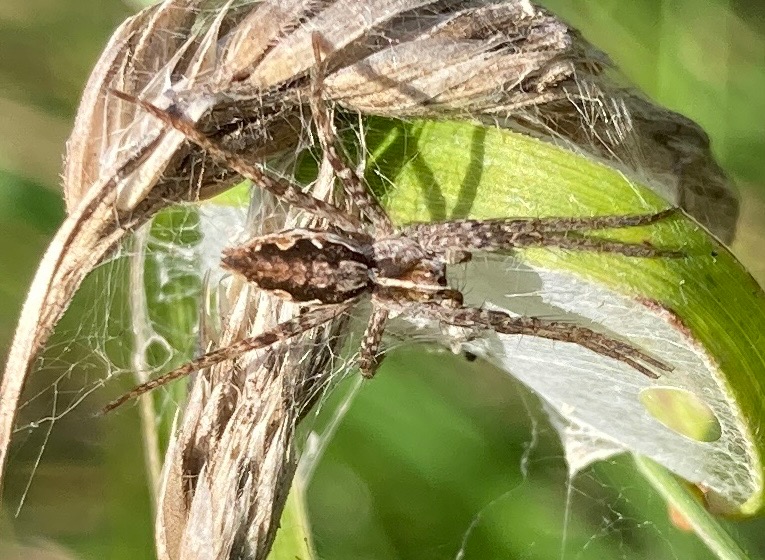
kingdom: Animalia
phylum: Arthropoda
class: Arachnida
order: Araneae
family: Pisauridae
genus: Pisaura
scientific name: Pisaura mirabilis
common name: Almindelig rovedderkop
